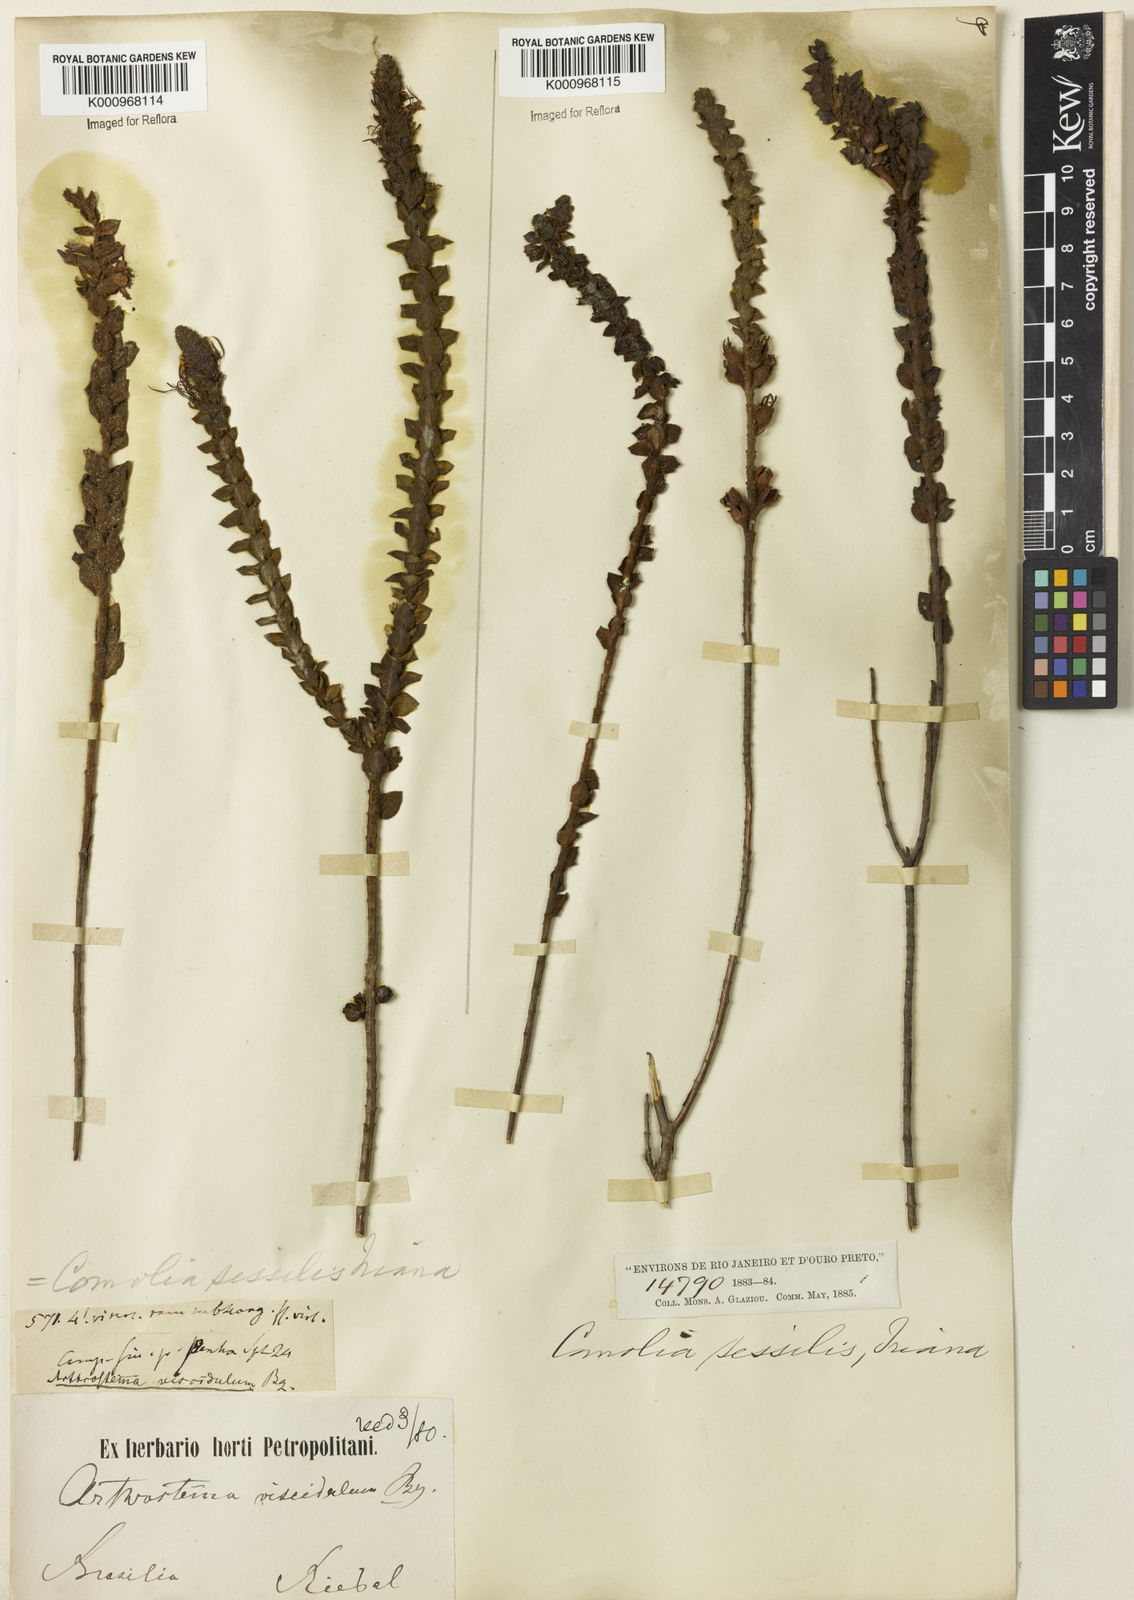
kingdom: Plantae
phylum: Tracheophyta
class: Magnoliopsida
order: Myrtales
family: Melastomataceae
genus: Fritzschia
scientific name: Fritzschia sessilis
